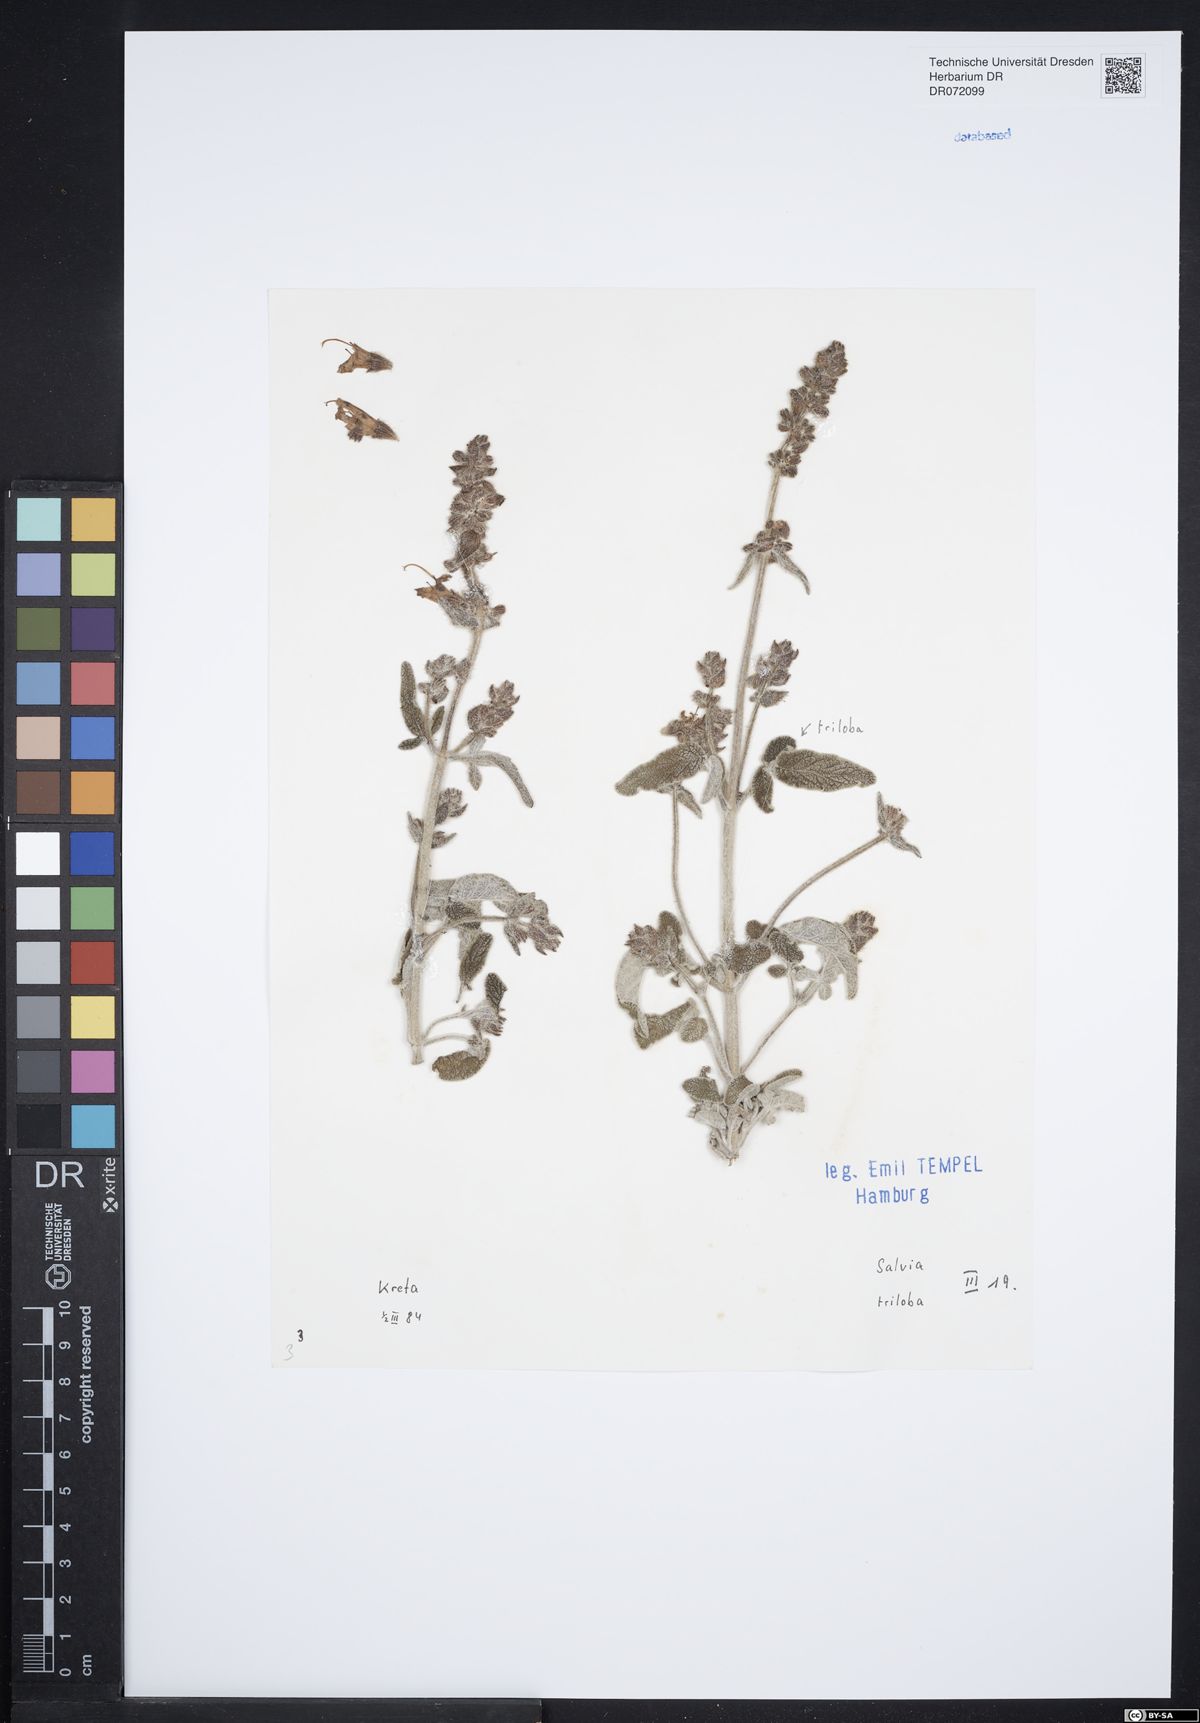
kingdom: Plantae
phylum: Tracheophyta
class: Magnoliopsida
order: Lamiales
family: Lamiaceae
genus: Salvia
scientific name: Salvia fruticosa
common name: Greek sage
